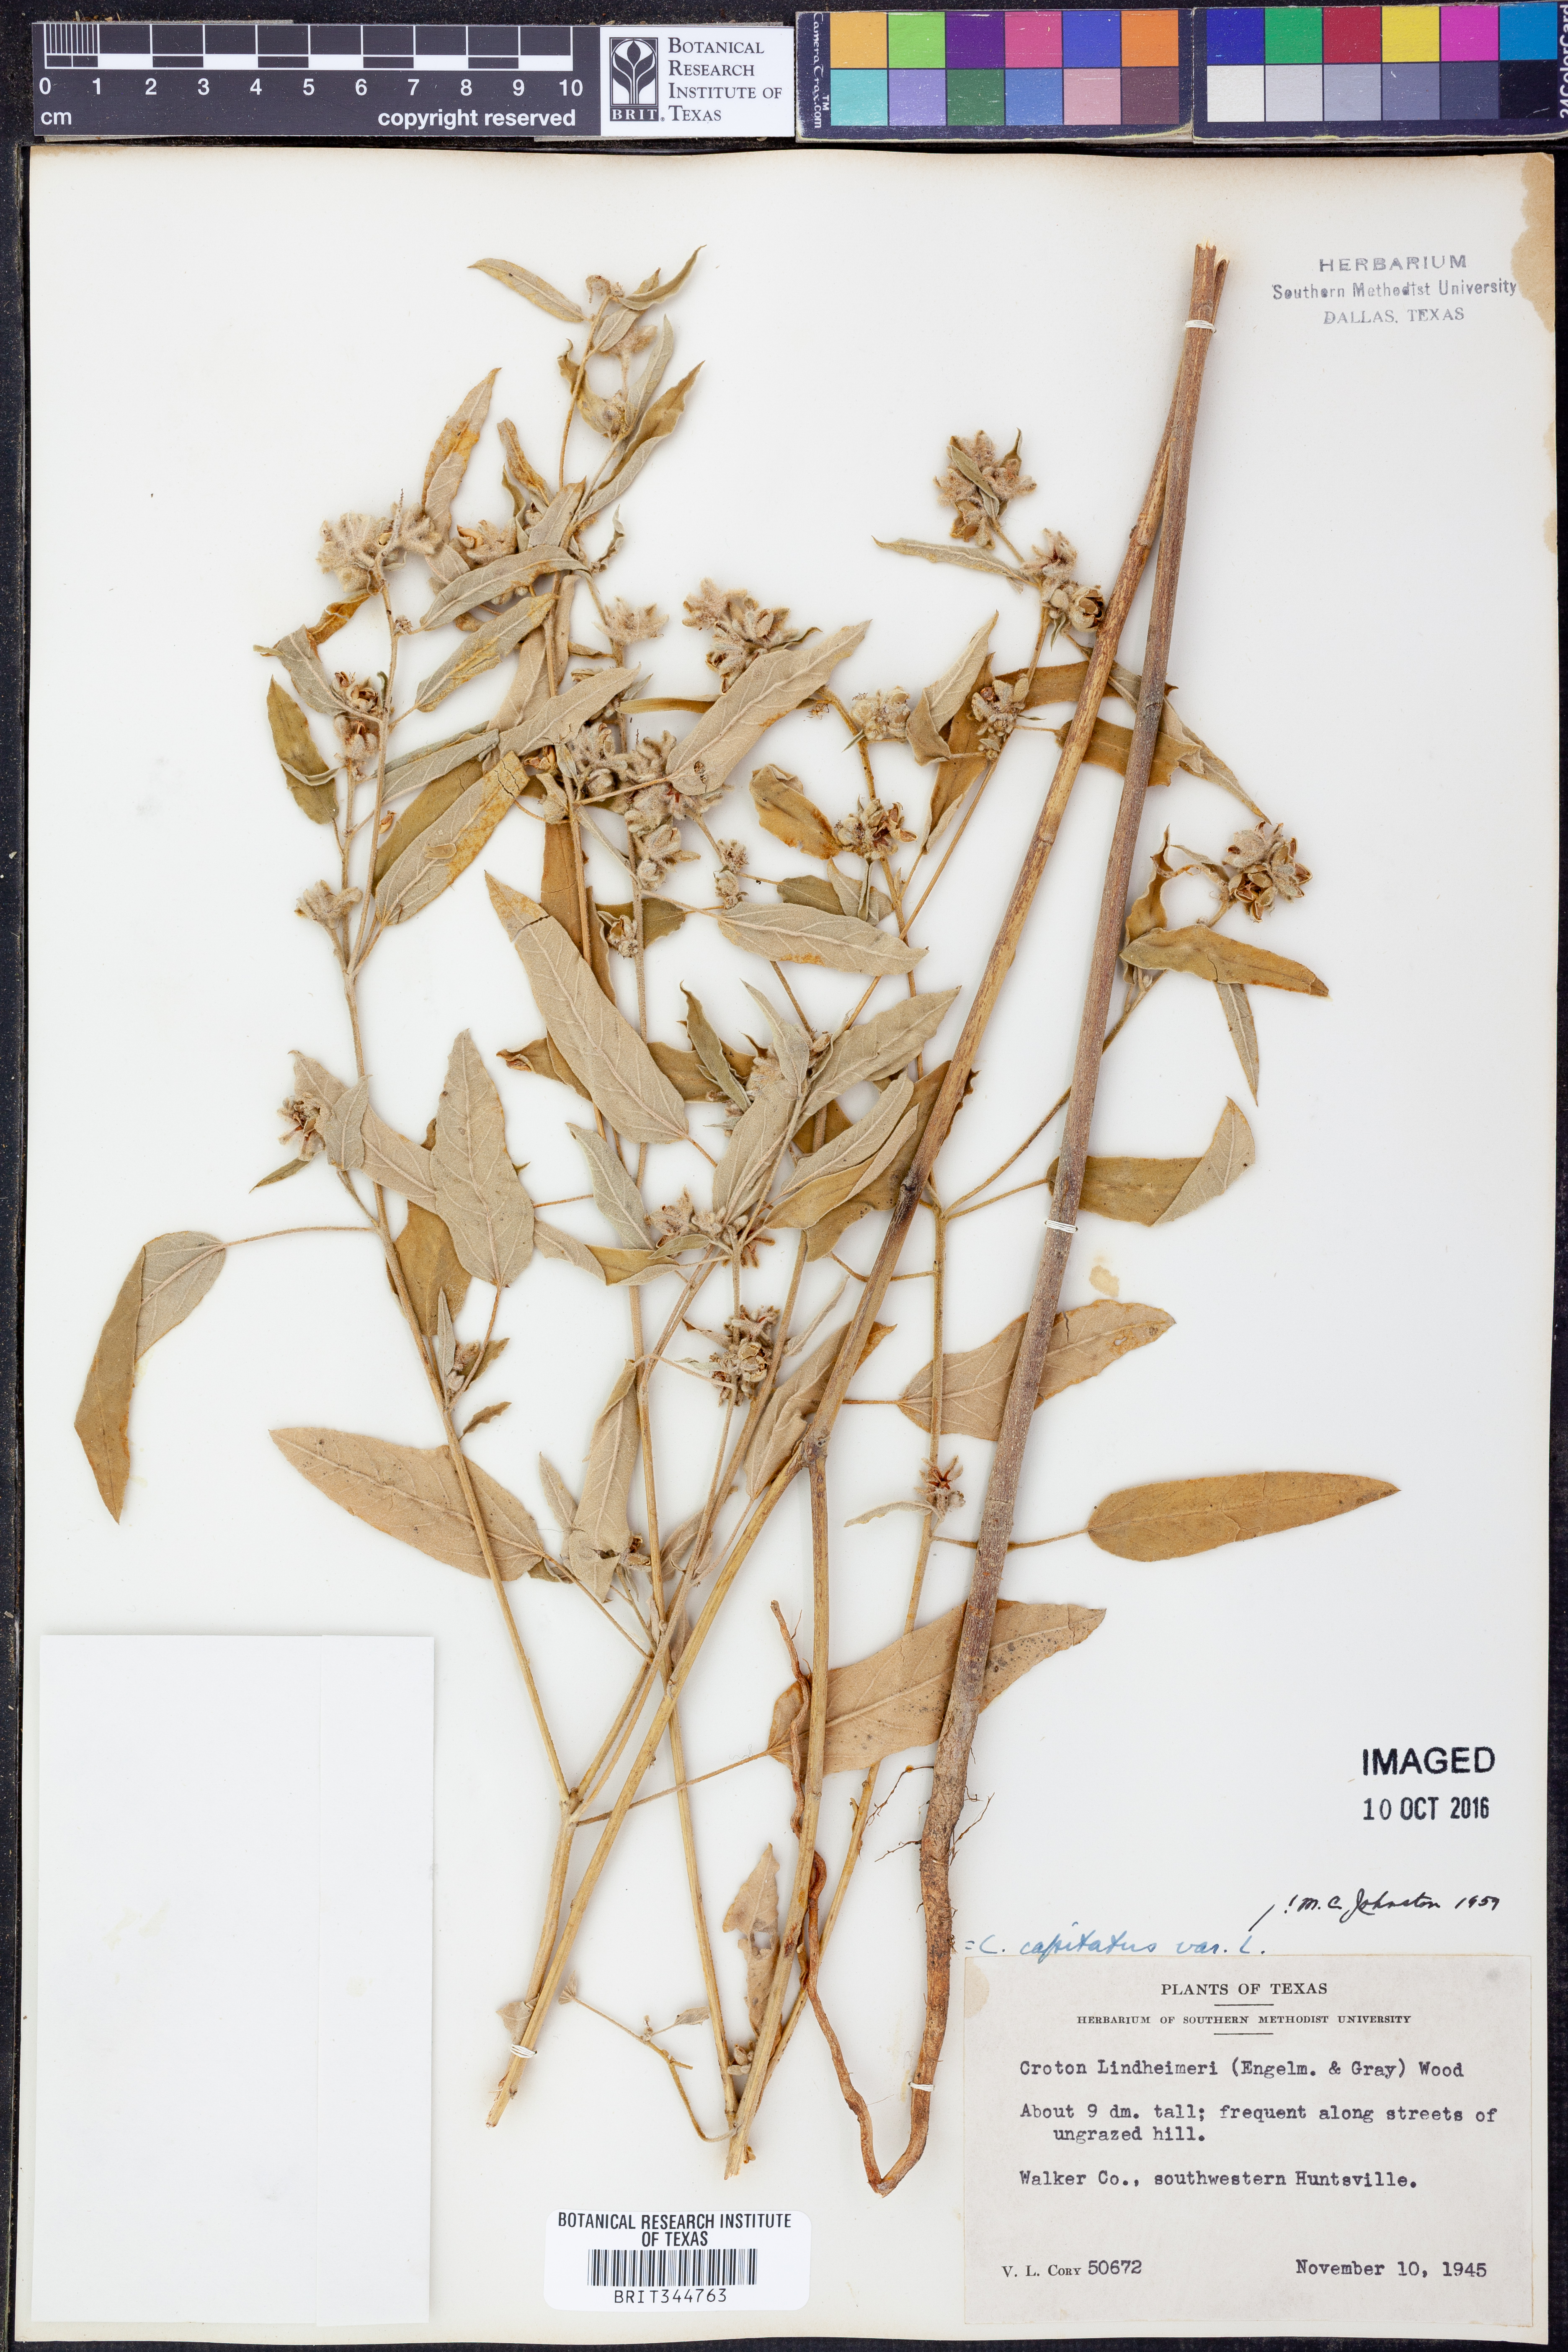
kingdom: Plantae
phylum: Tracheophyta
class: Magnoliopsida
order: Malpighiales
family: Euphorbiaceae
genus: Croton
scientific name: Croton lindheimeri
